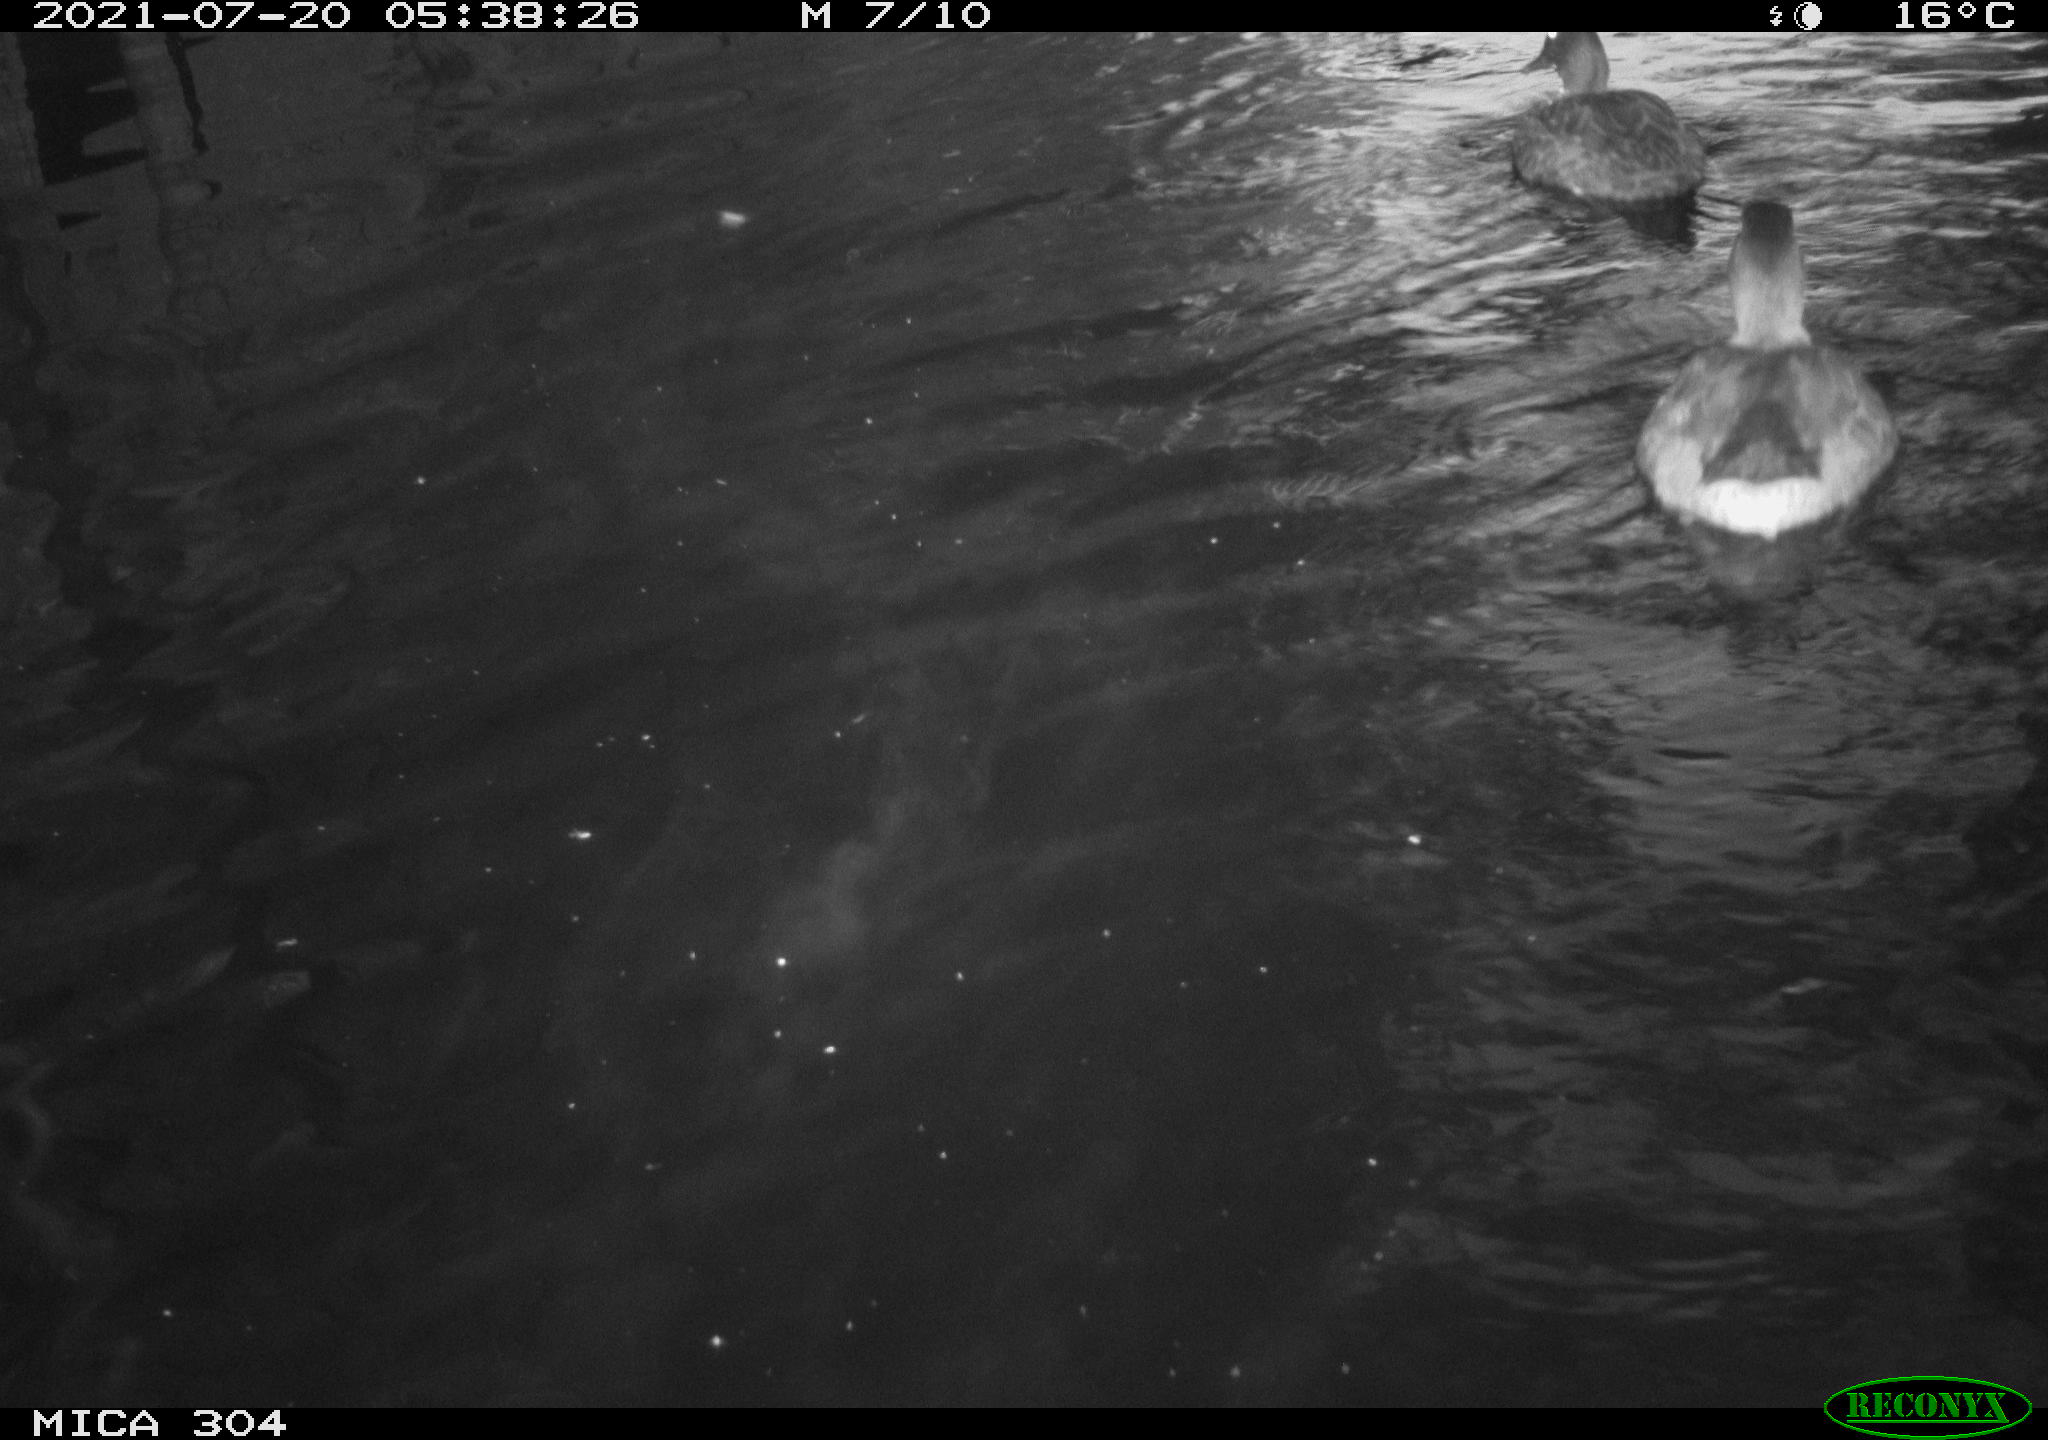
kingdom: Animalia
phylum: Chordata
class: Aves
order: Anseriformes
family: Anatidae
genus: Anas
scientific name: Anas platyrhynchos
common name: Mallard
